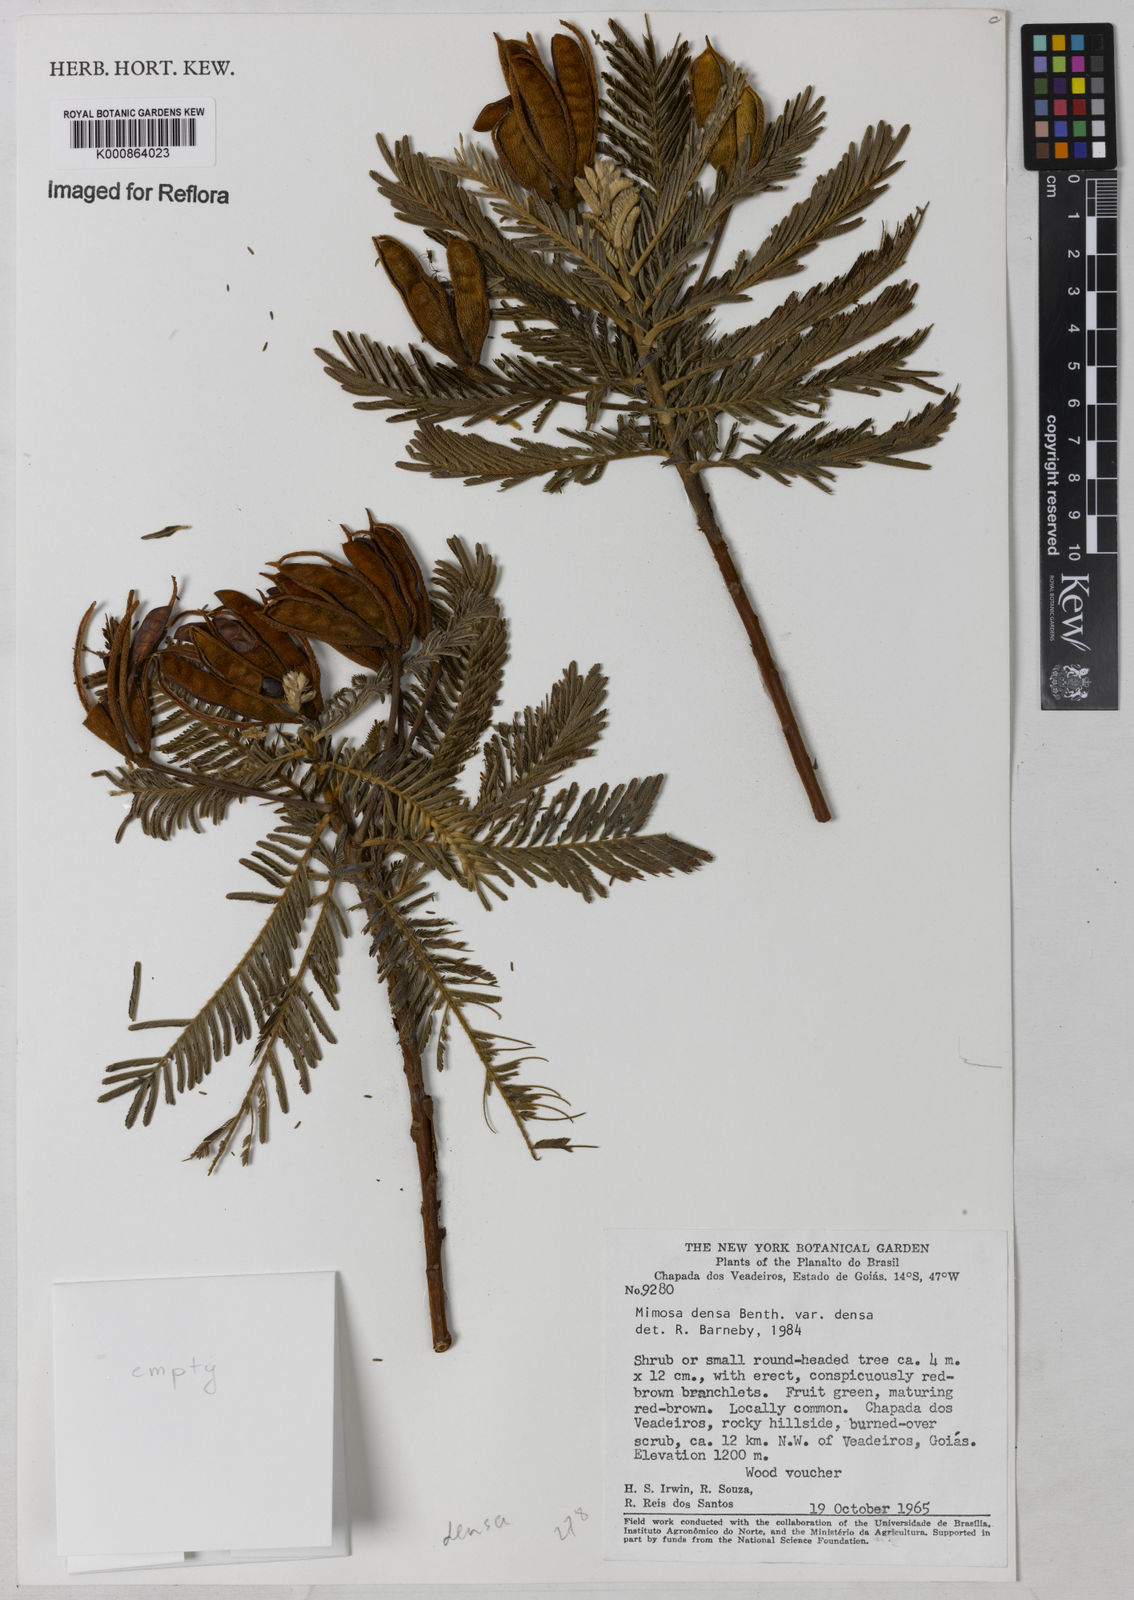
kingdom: Plantae
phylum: Tracheophyta
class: Magnoliopsida
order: Fabales
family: Fabaceae
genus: Mimosa
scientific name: Mimosa densa
